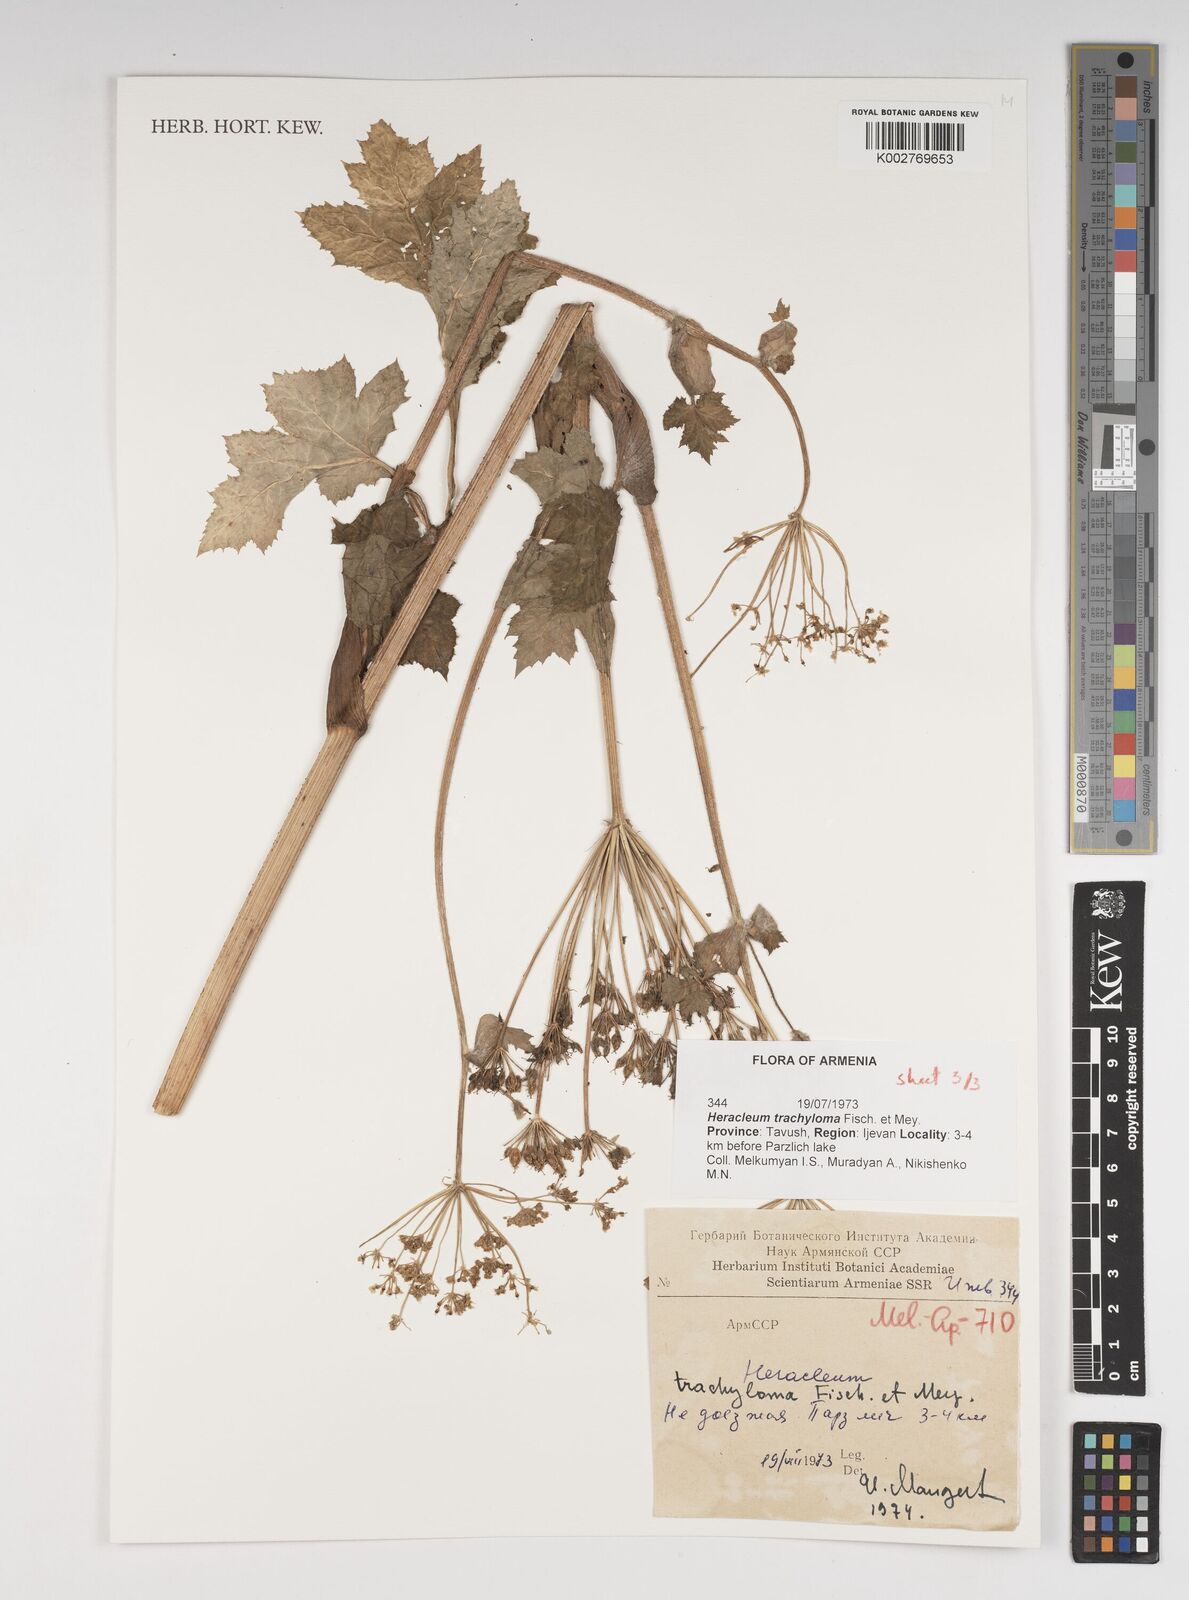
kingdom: Plantae
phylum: Tracheophyta
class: Magnoliopsida
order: Apiales
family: Apiaceae
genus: Heracleum
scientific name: Heracleum trachyloma
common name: Downy cow-parsnip
